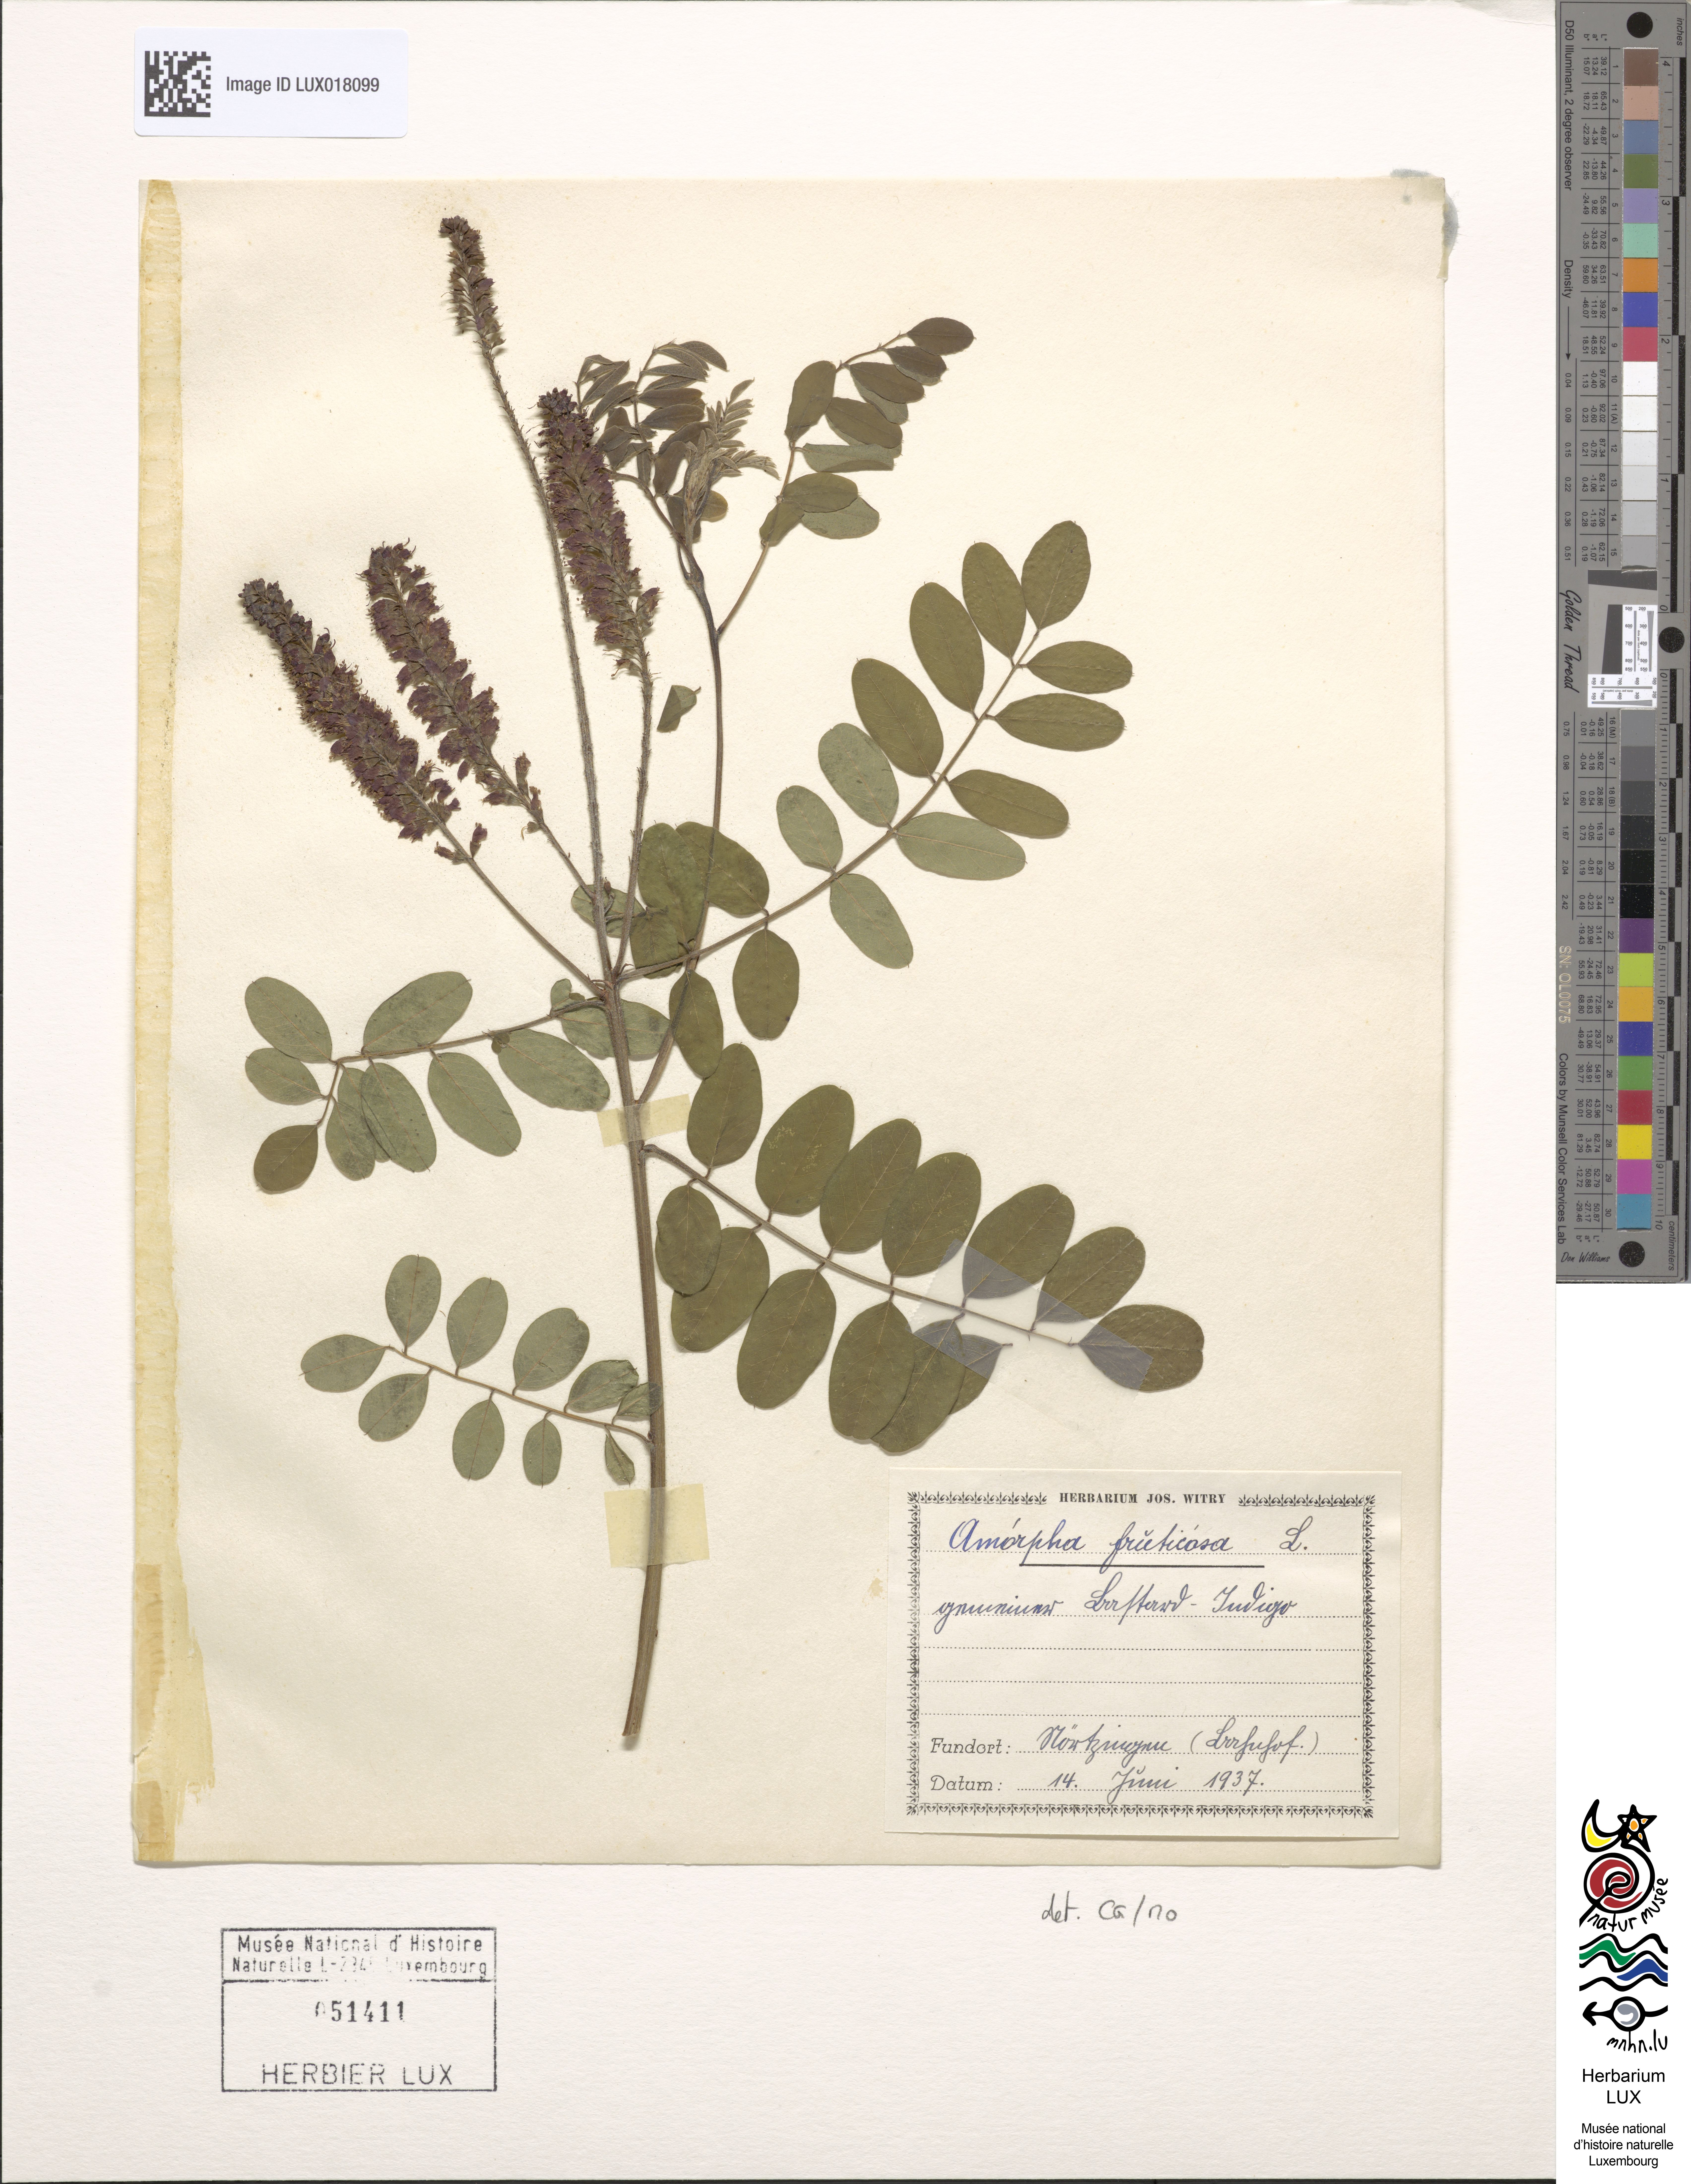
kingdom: Plantae
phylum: Tracheophyta
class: Magnoliopsida
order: Fabales
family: Fabaceae
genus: Amorpha
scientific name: Amorpha fruticosa
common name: False indigo
